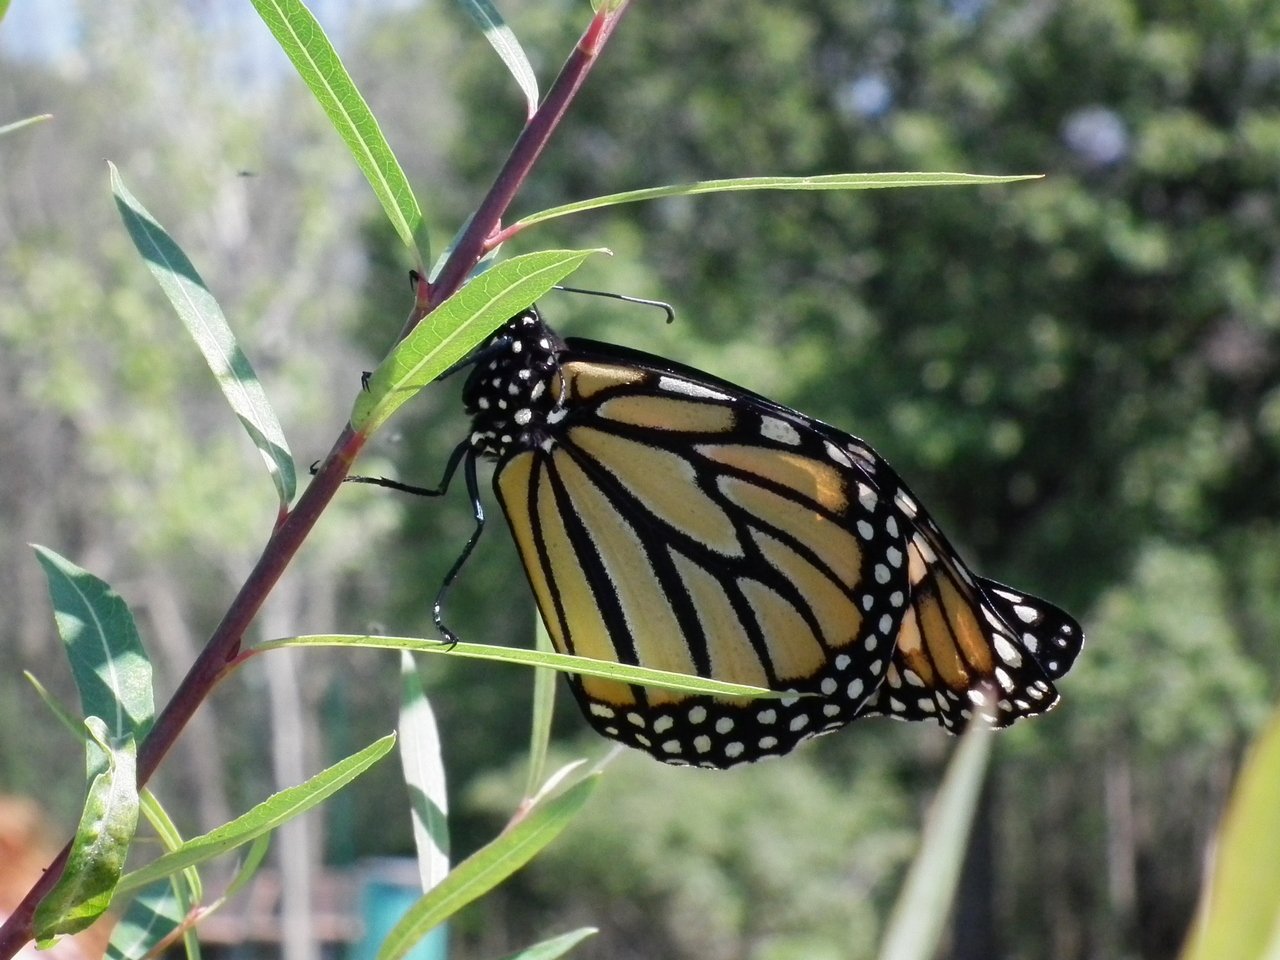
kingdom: Animalia
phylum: Arthropoda
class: Insecta
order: Lepidoptera
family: Nymphalidae
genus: Danaus
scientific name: Danaus plexippus
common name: Monarch
